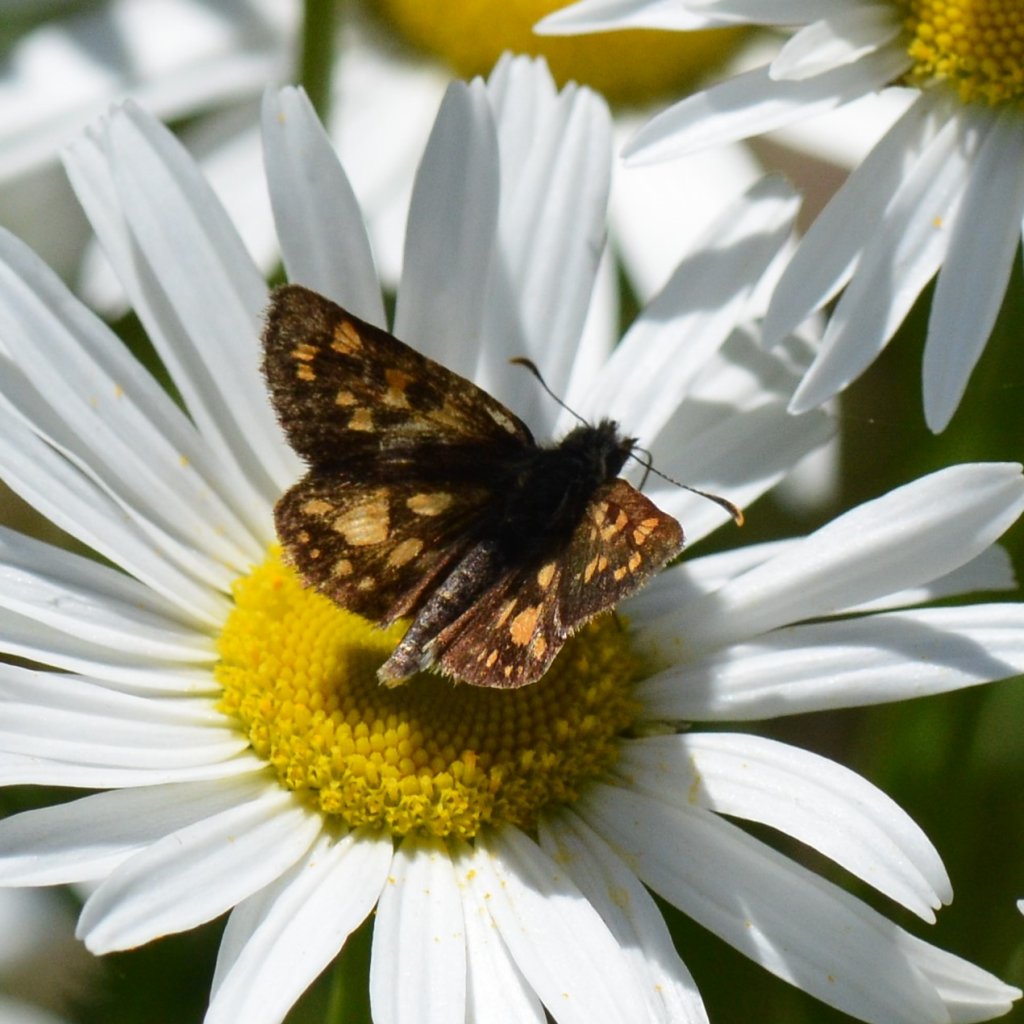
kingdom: Animalia
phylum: Arthropoda
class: Insecta
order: Lepidoptera
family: Hesperiidae
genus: Carterocephalus
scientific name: Carterocephalus palaemon
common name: Chequered Skipper
